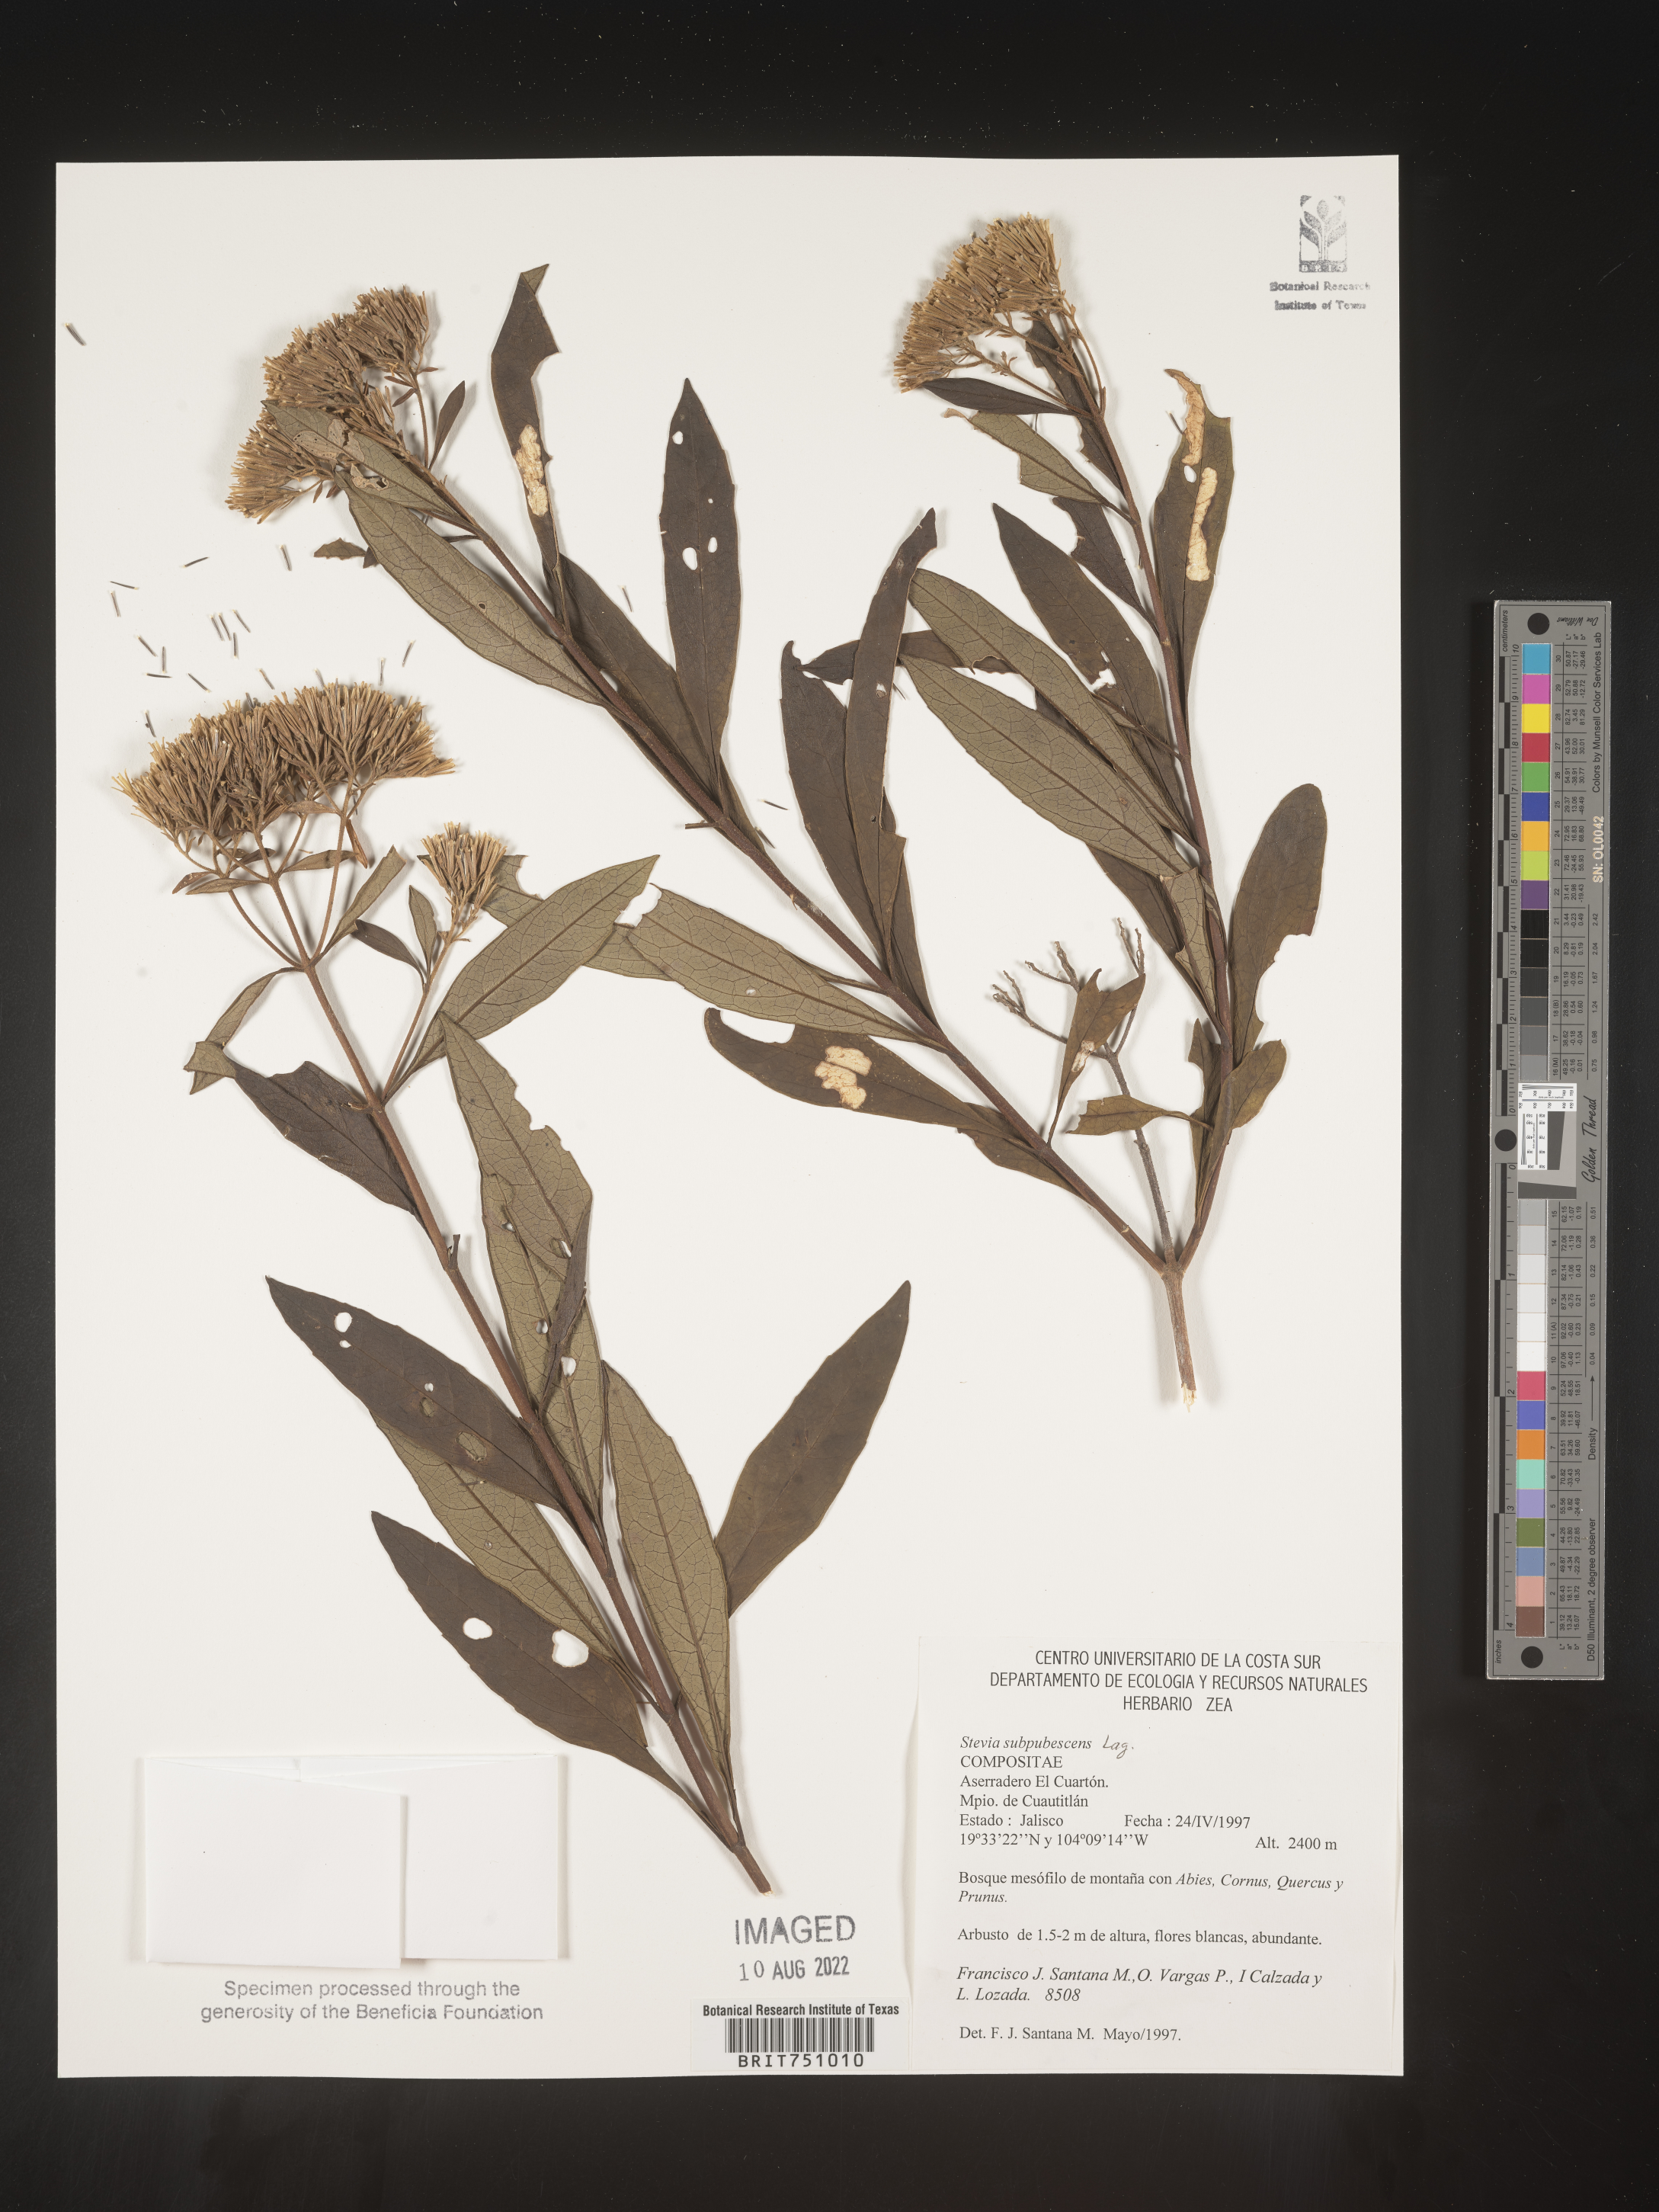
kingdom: Plantae
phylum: Tracheophyta
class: Magnoliopsida
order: Asterales
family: Asteraceae
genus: Stevia
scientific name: Stevia subpubescens
